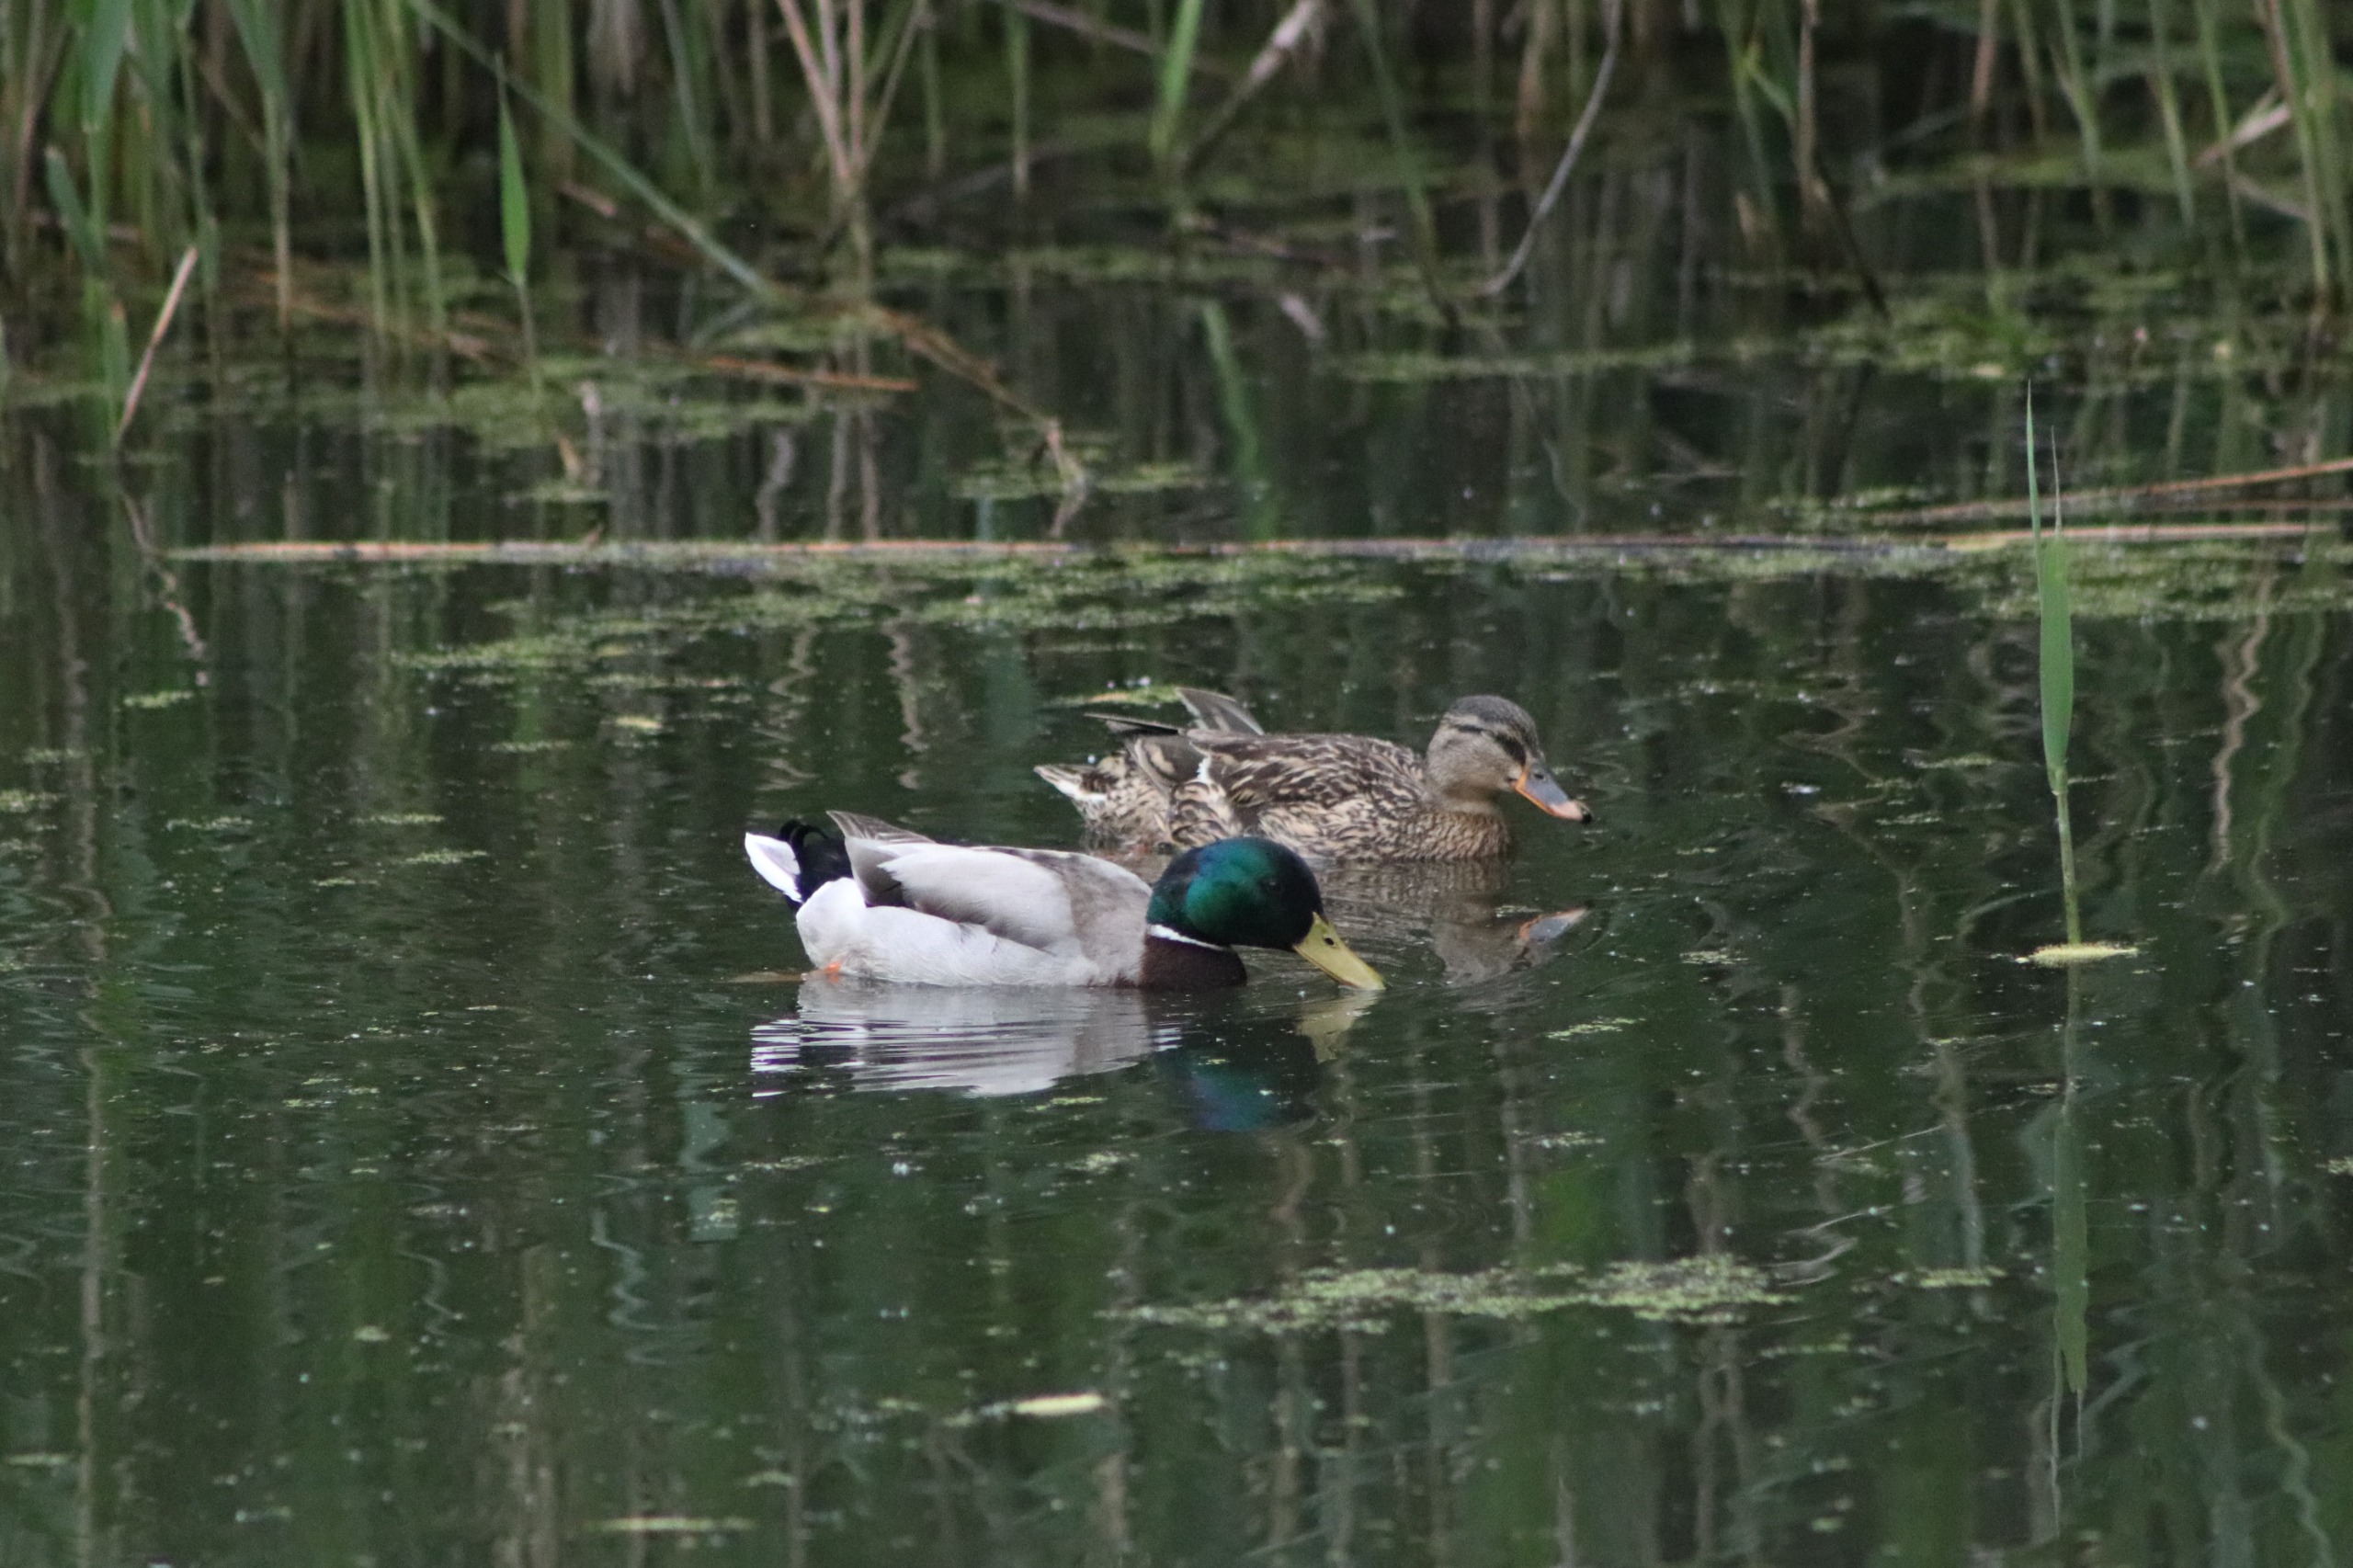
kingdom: Animalia
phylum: Chordata
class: Aves
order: Anseriformes
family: Anatidae
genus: Anas
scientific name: Anas platyrhynchos
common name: Gråand
